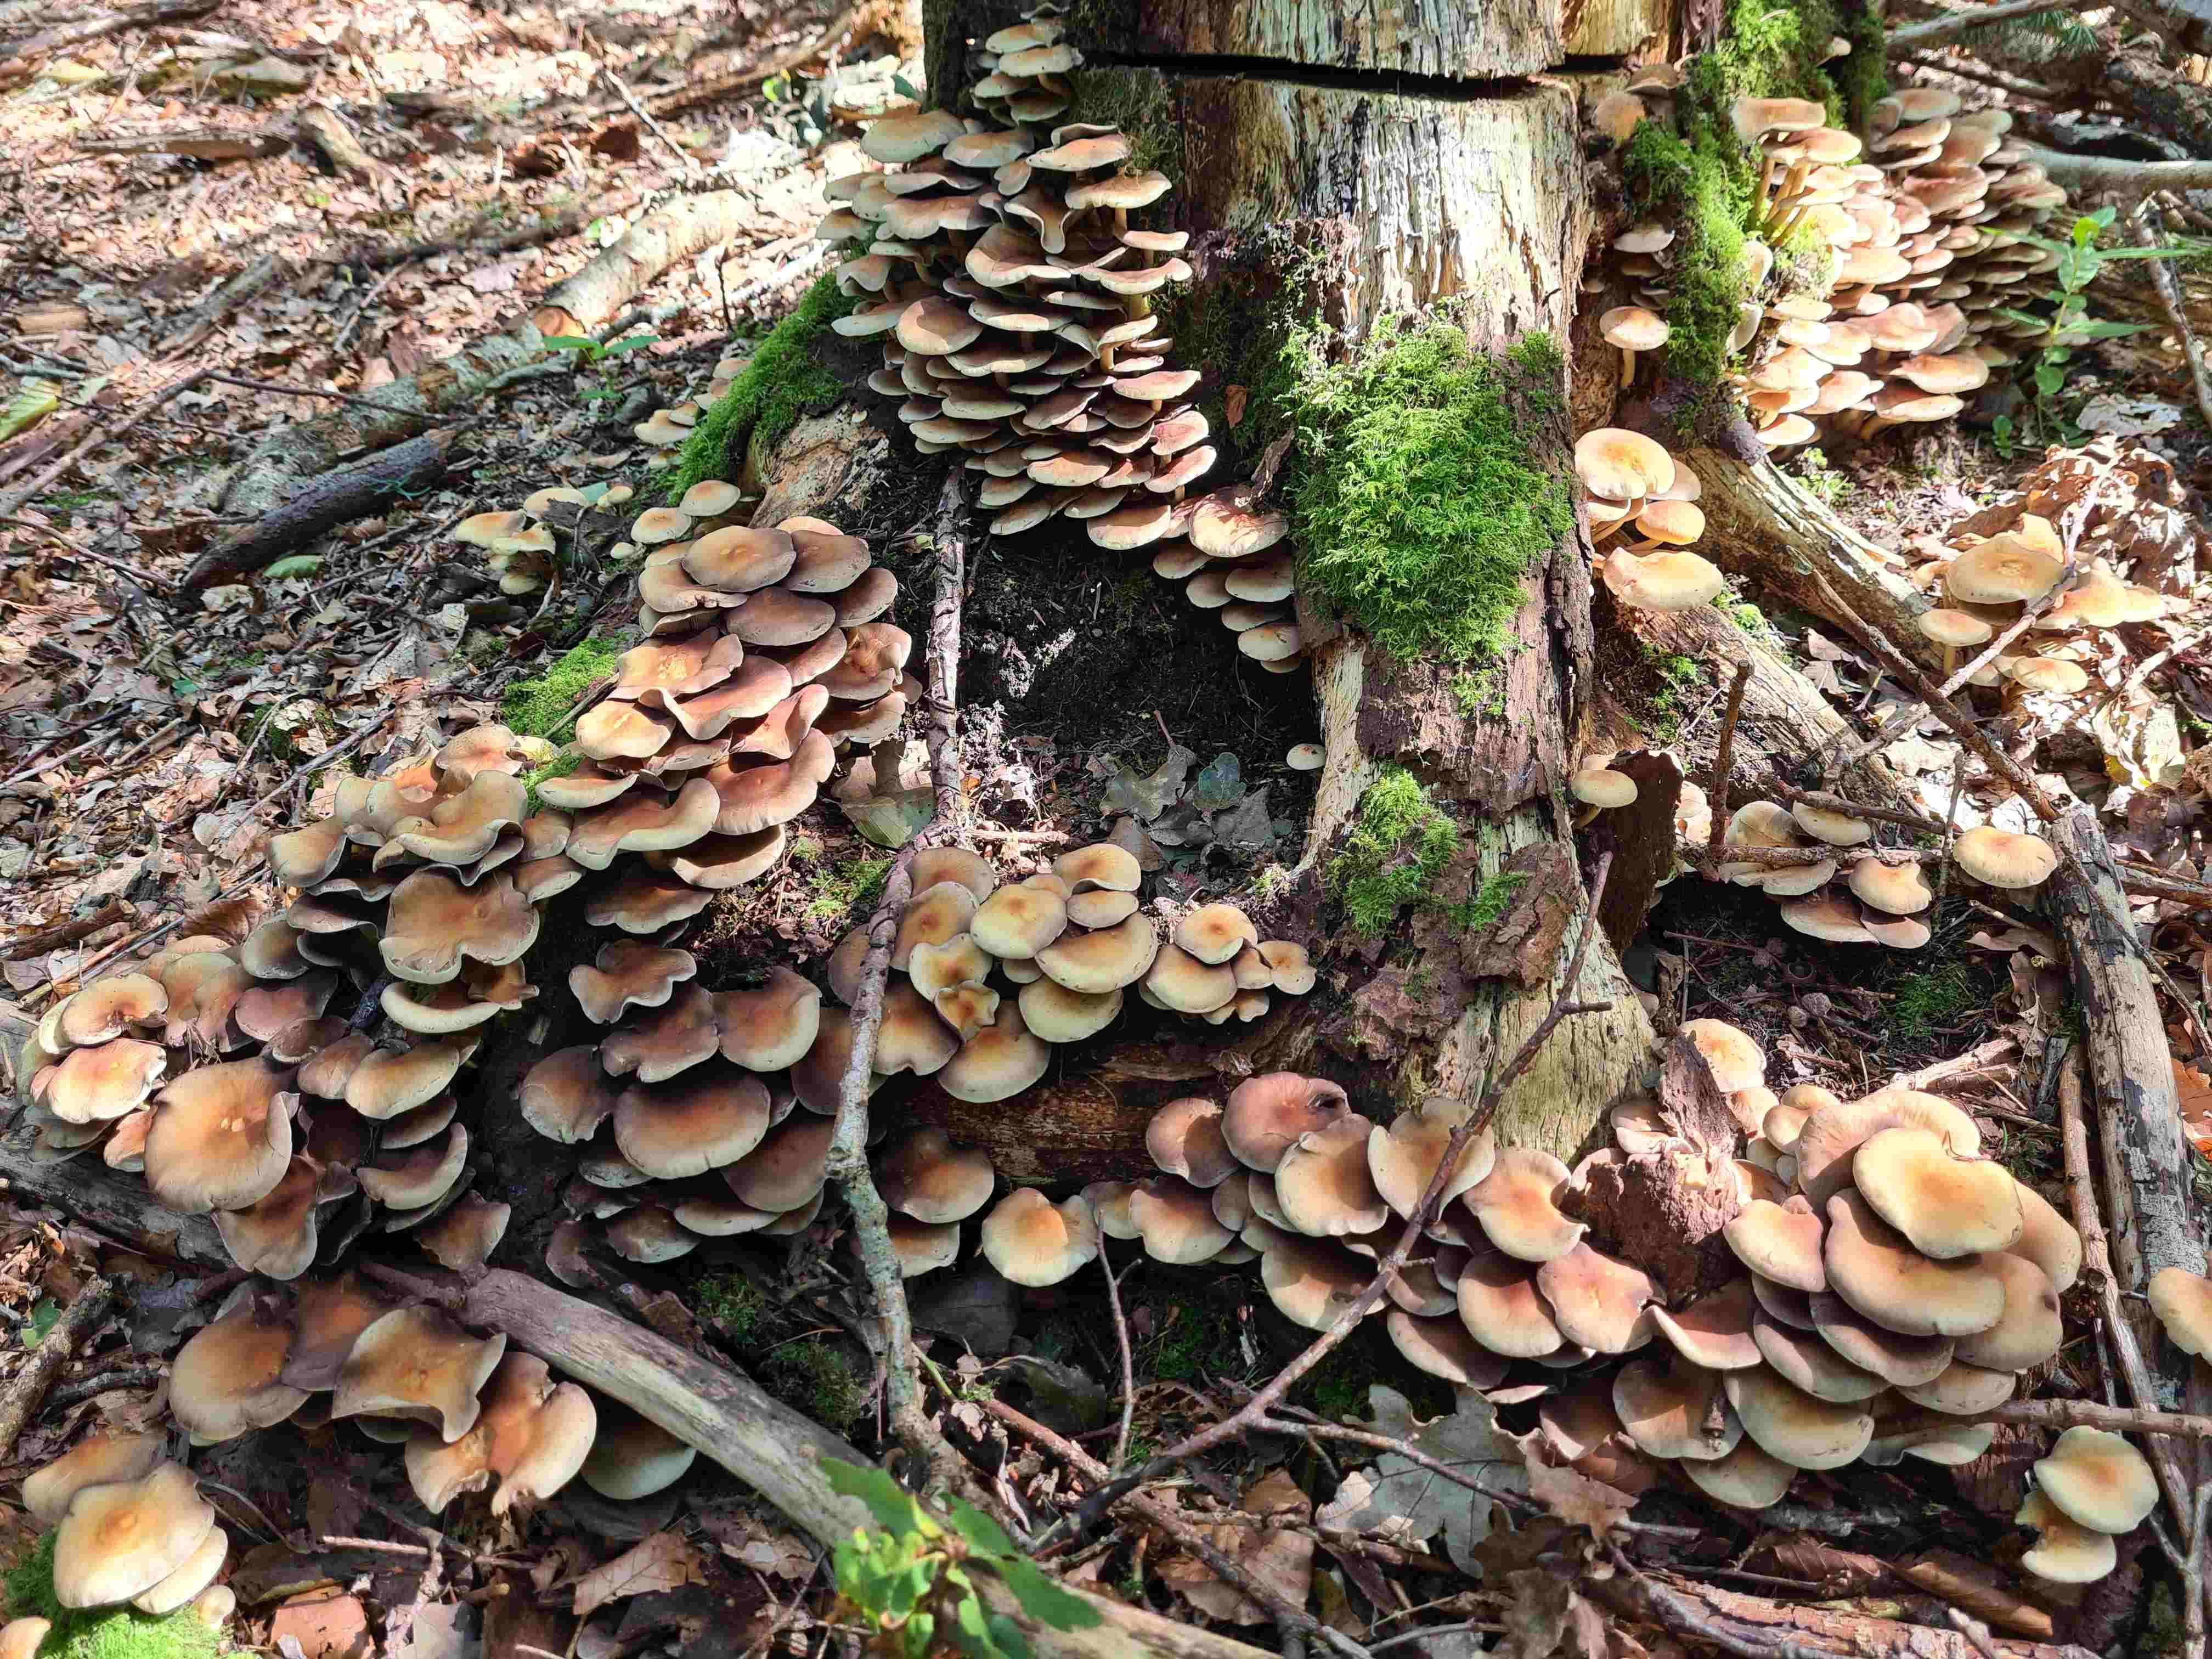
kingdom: Fungi
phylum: Basidiomycota
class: Agaricomycetes
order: Agaricales
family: Strophariaceae
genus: Hypholoma
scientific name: Hypholoma fasciculare
